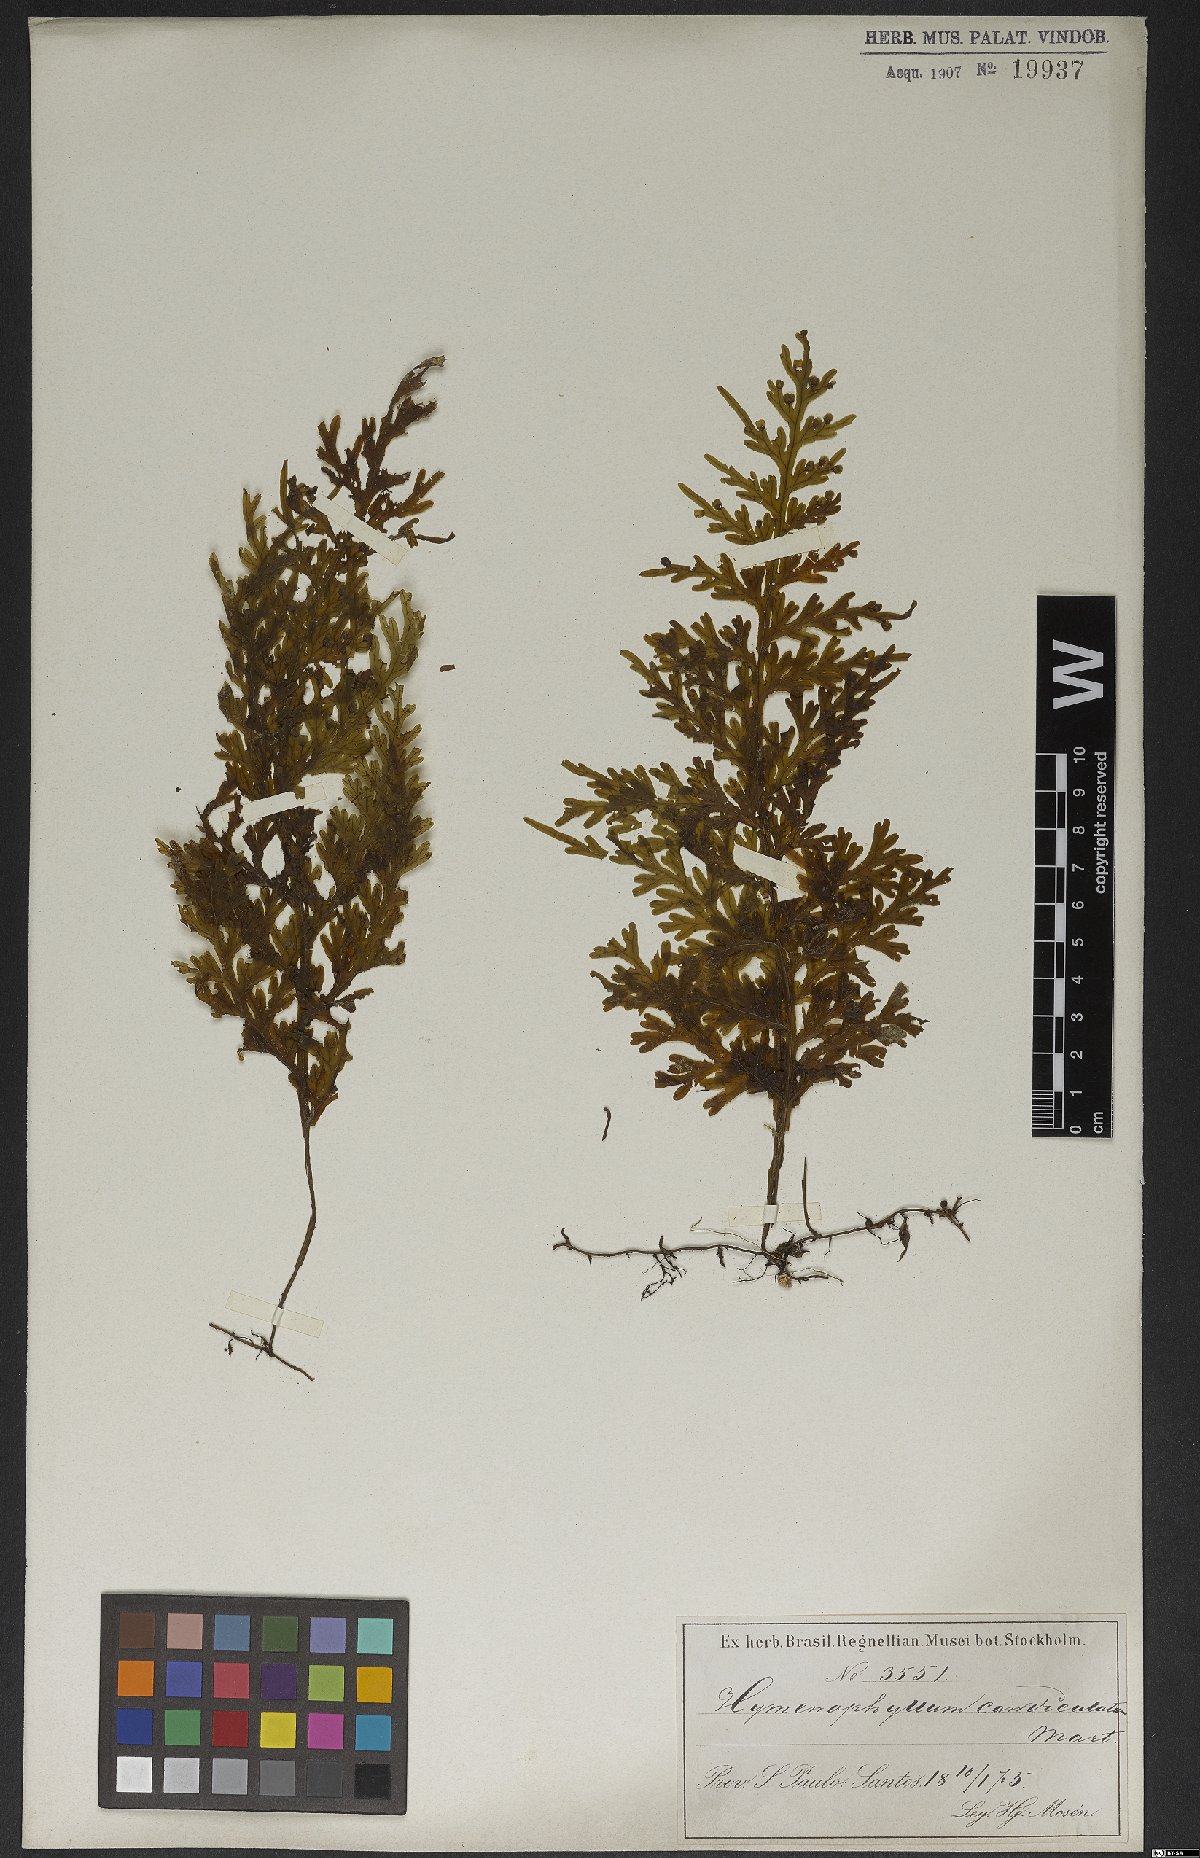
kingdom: Plantae
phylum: Tracheophyta
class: Polypodiopsida
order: Hymenophyllales
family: Hymenophyllaceae
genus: Hymenophyllum
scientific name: Hymenophyllum caudiculatum
